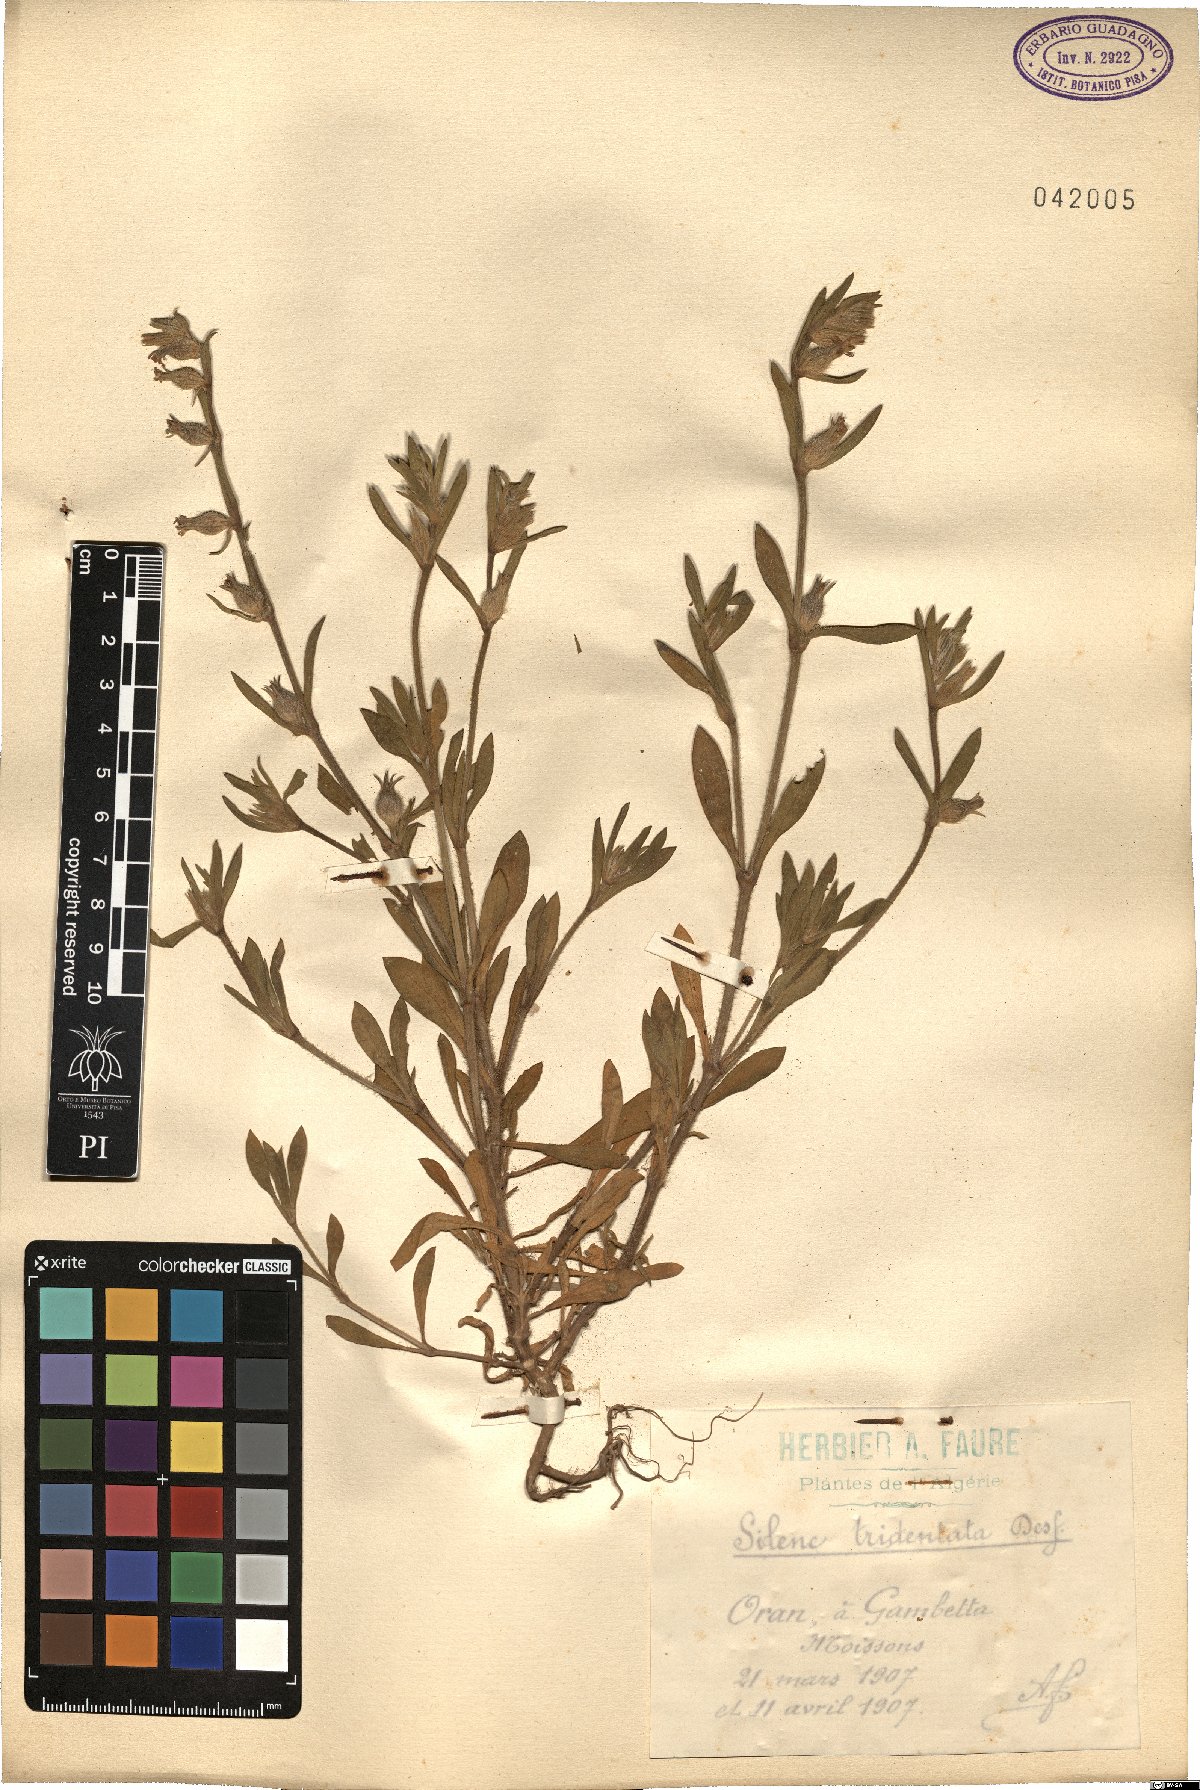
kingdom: Plantae
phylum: Tracheophyta
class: Magnoliopsida
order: Caryophyllales
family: Caryophyllaceae
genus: Silene
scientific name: Silene tridentata
